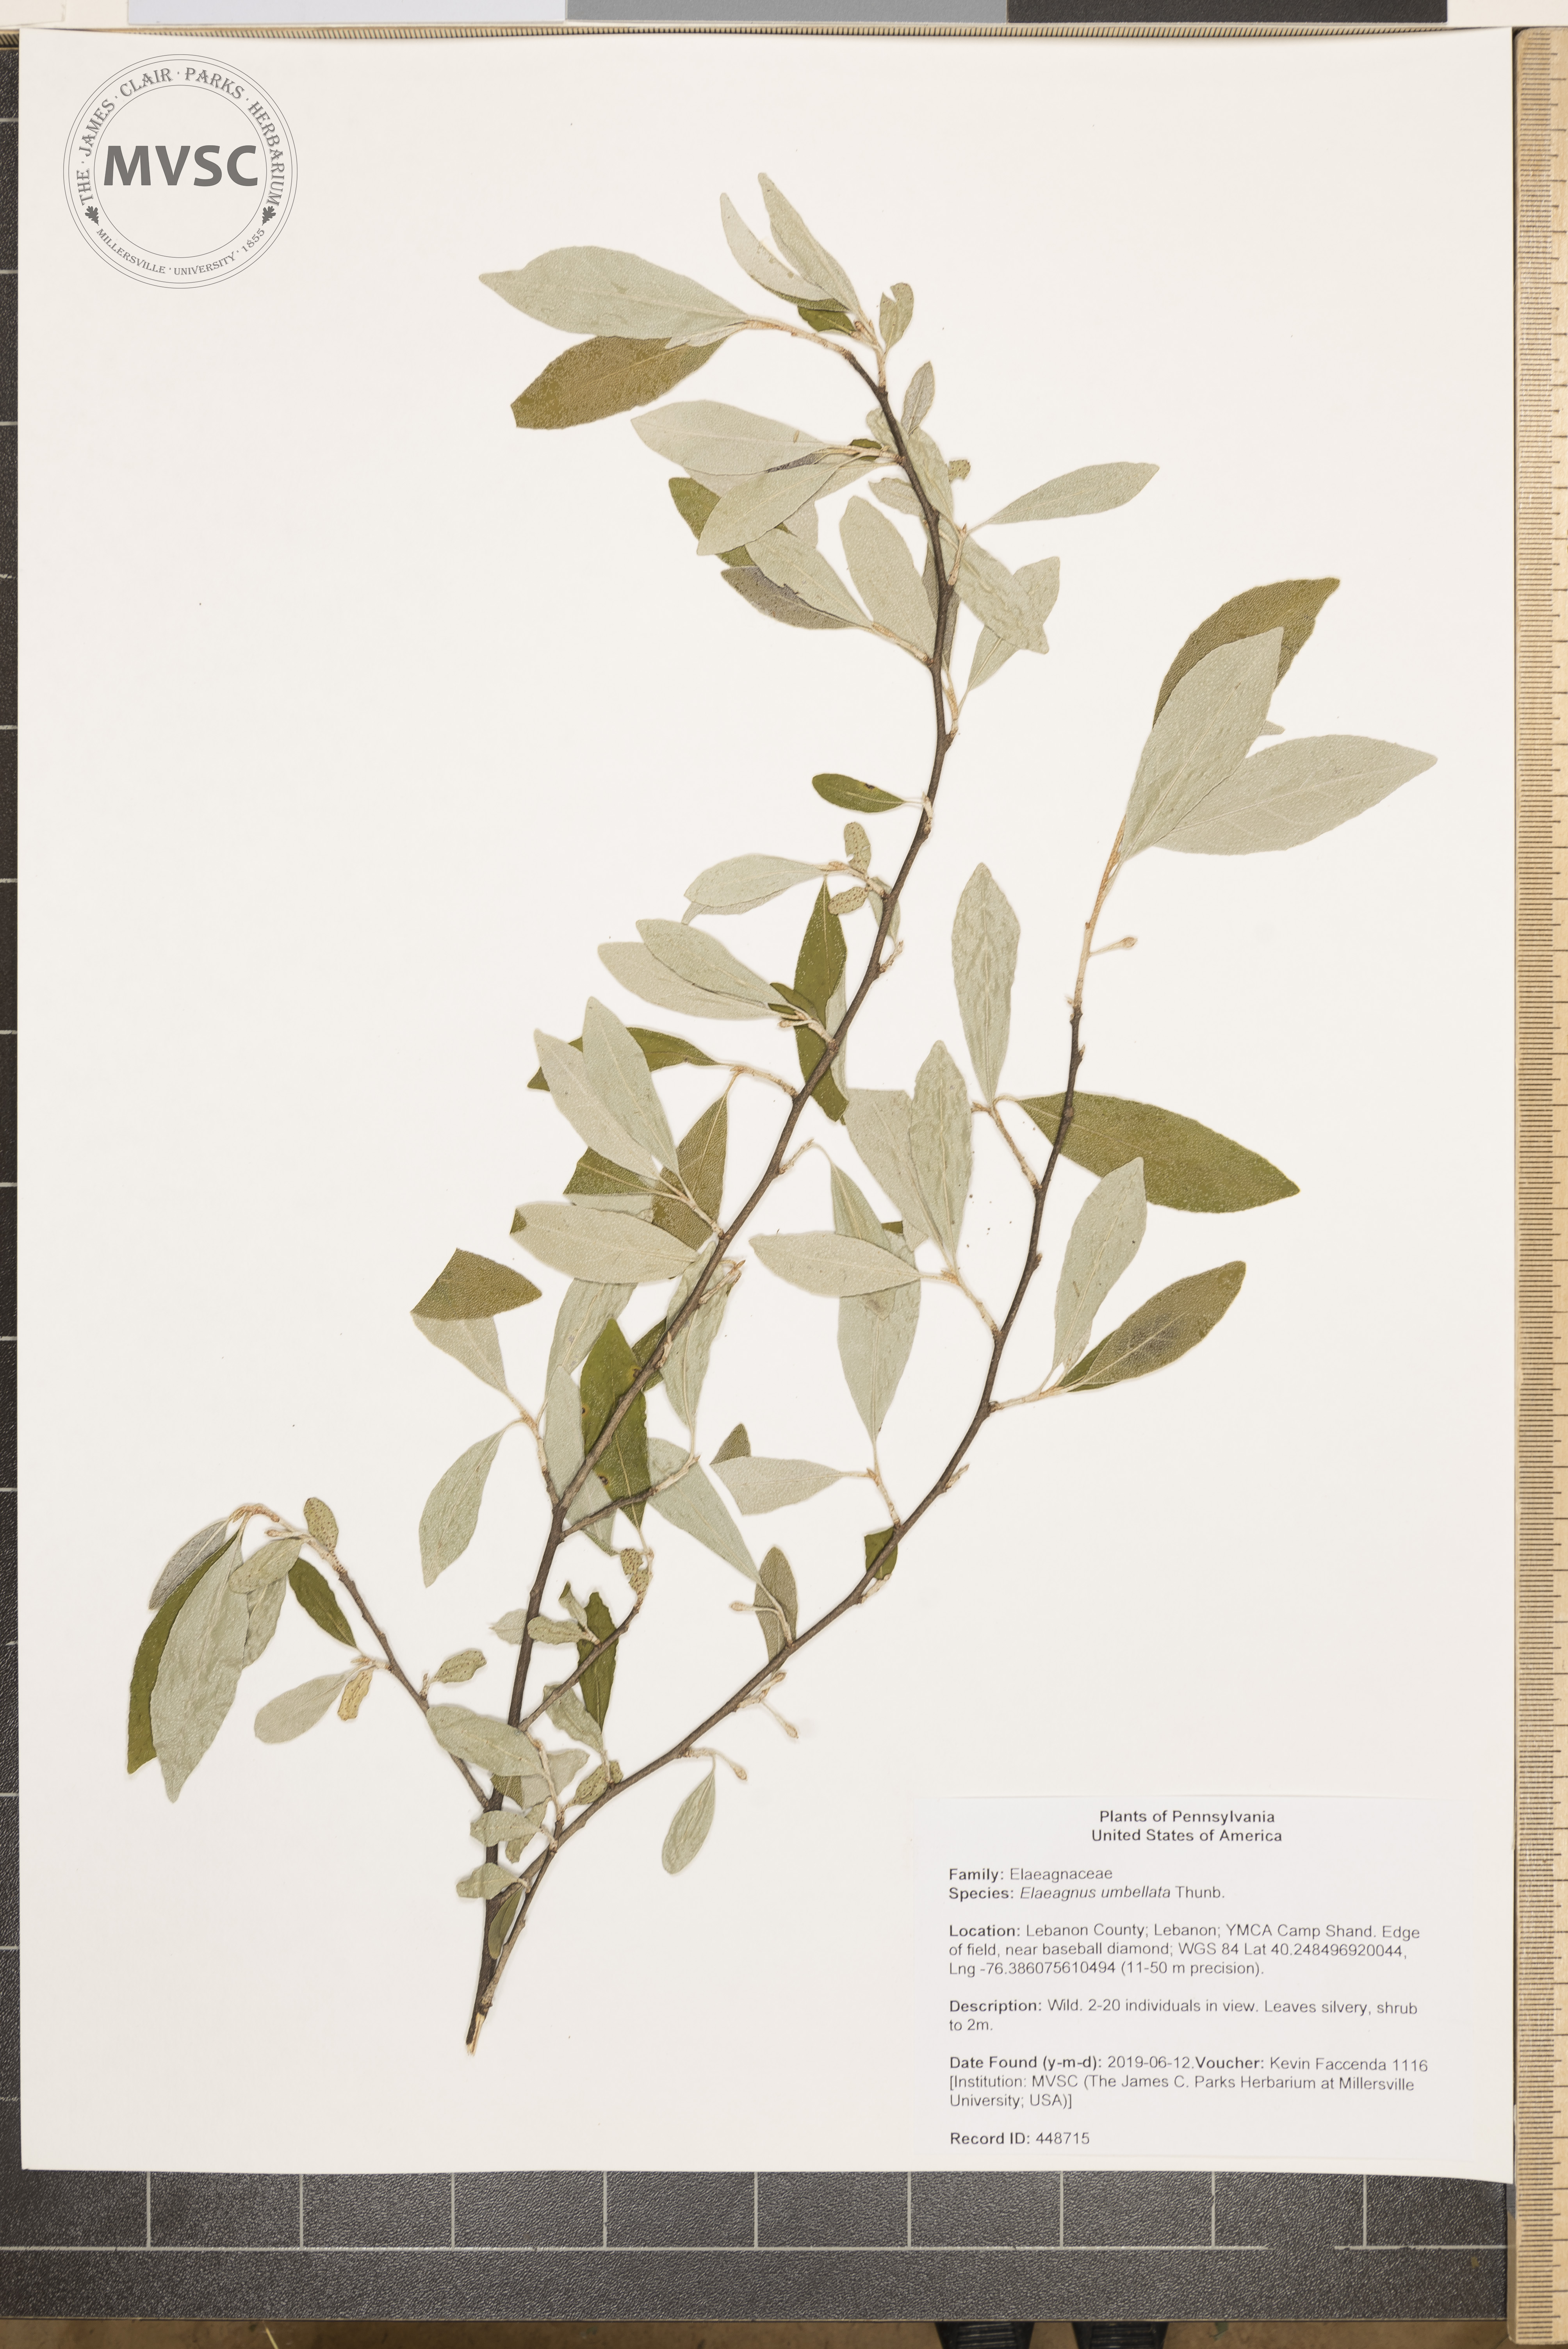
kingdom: Plantae
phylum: Tracheophyta
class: Magnoliopsida
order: Rosales
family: Elaeagnaceae
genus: Elaeagnus
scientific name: Elaeagnus umbellata
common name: Autumn olive
